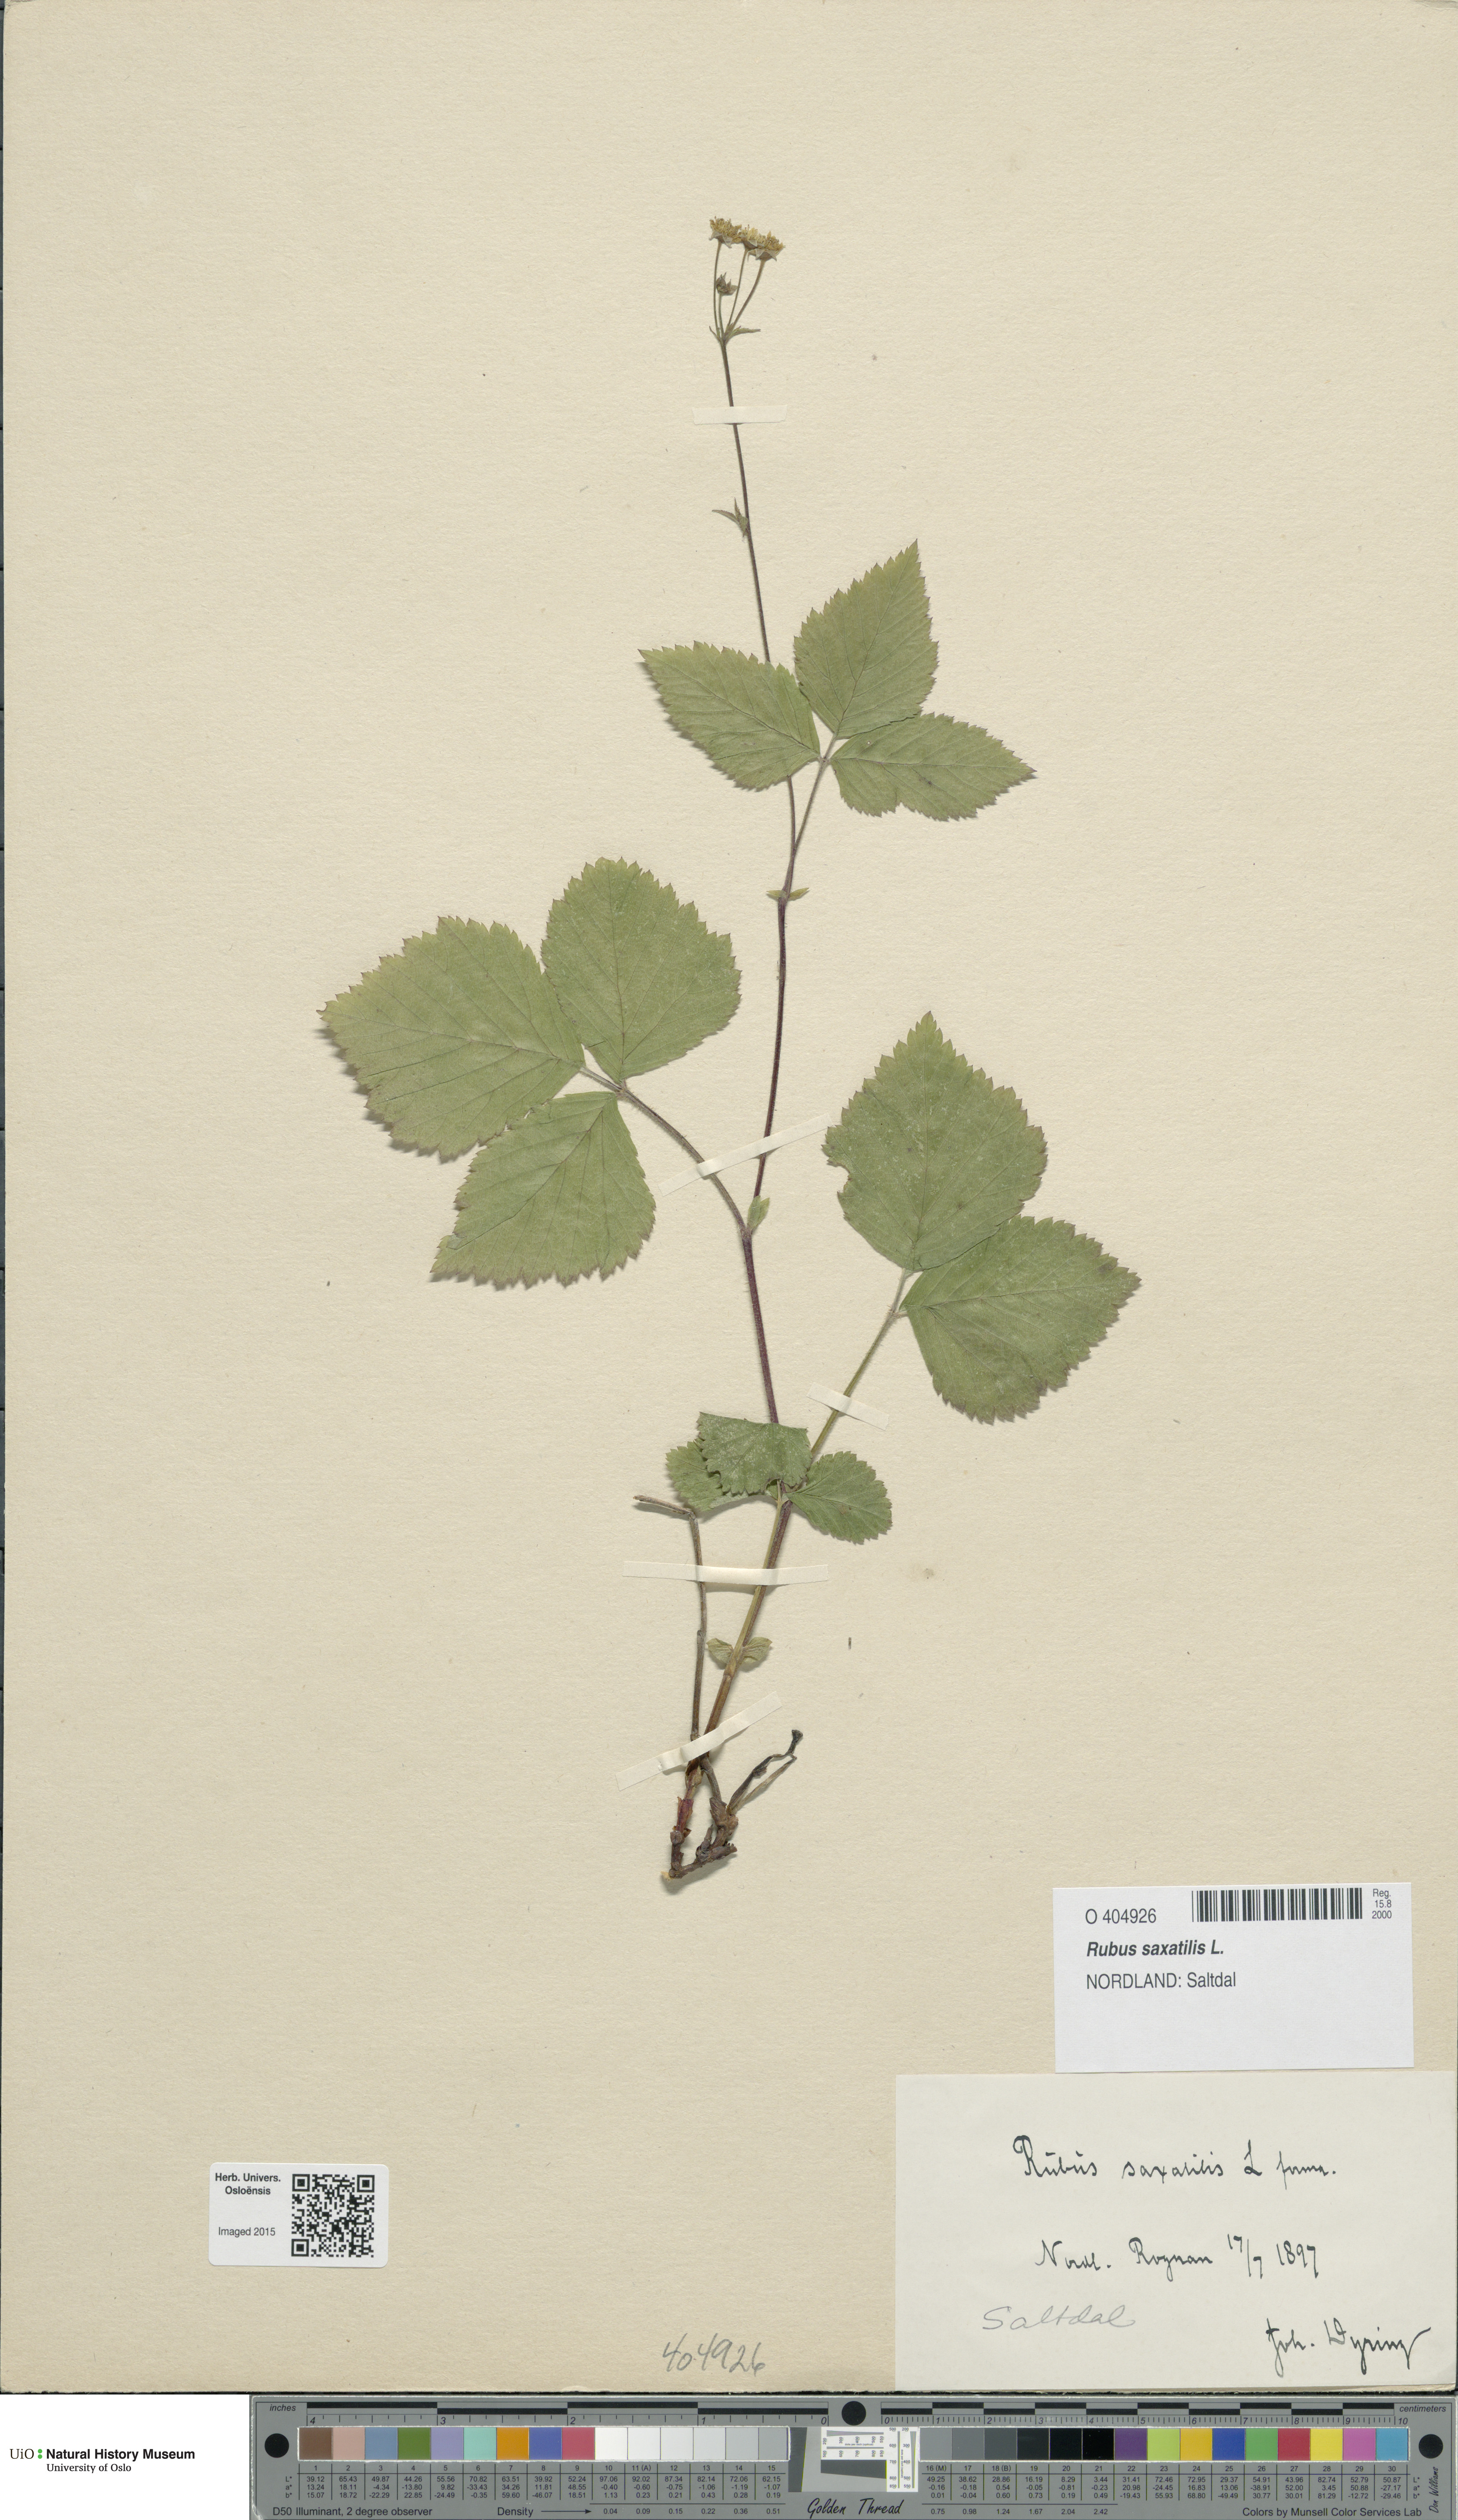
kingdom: Plantae
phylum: Tracheophyta
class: Magnoliopsida
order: Rosales
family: Rosaceae
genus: Rubus
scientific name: Rubus saxatilis
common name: Stone bramble
